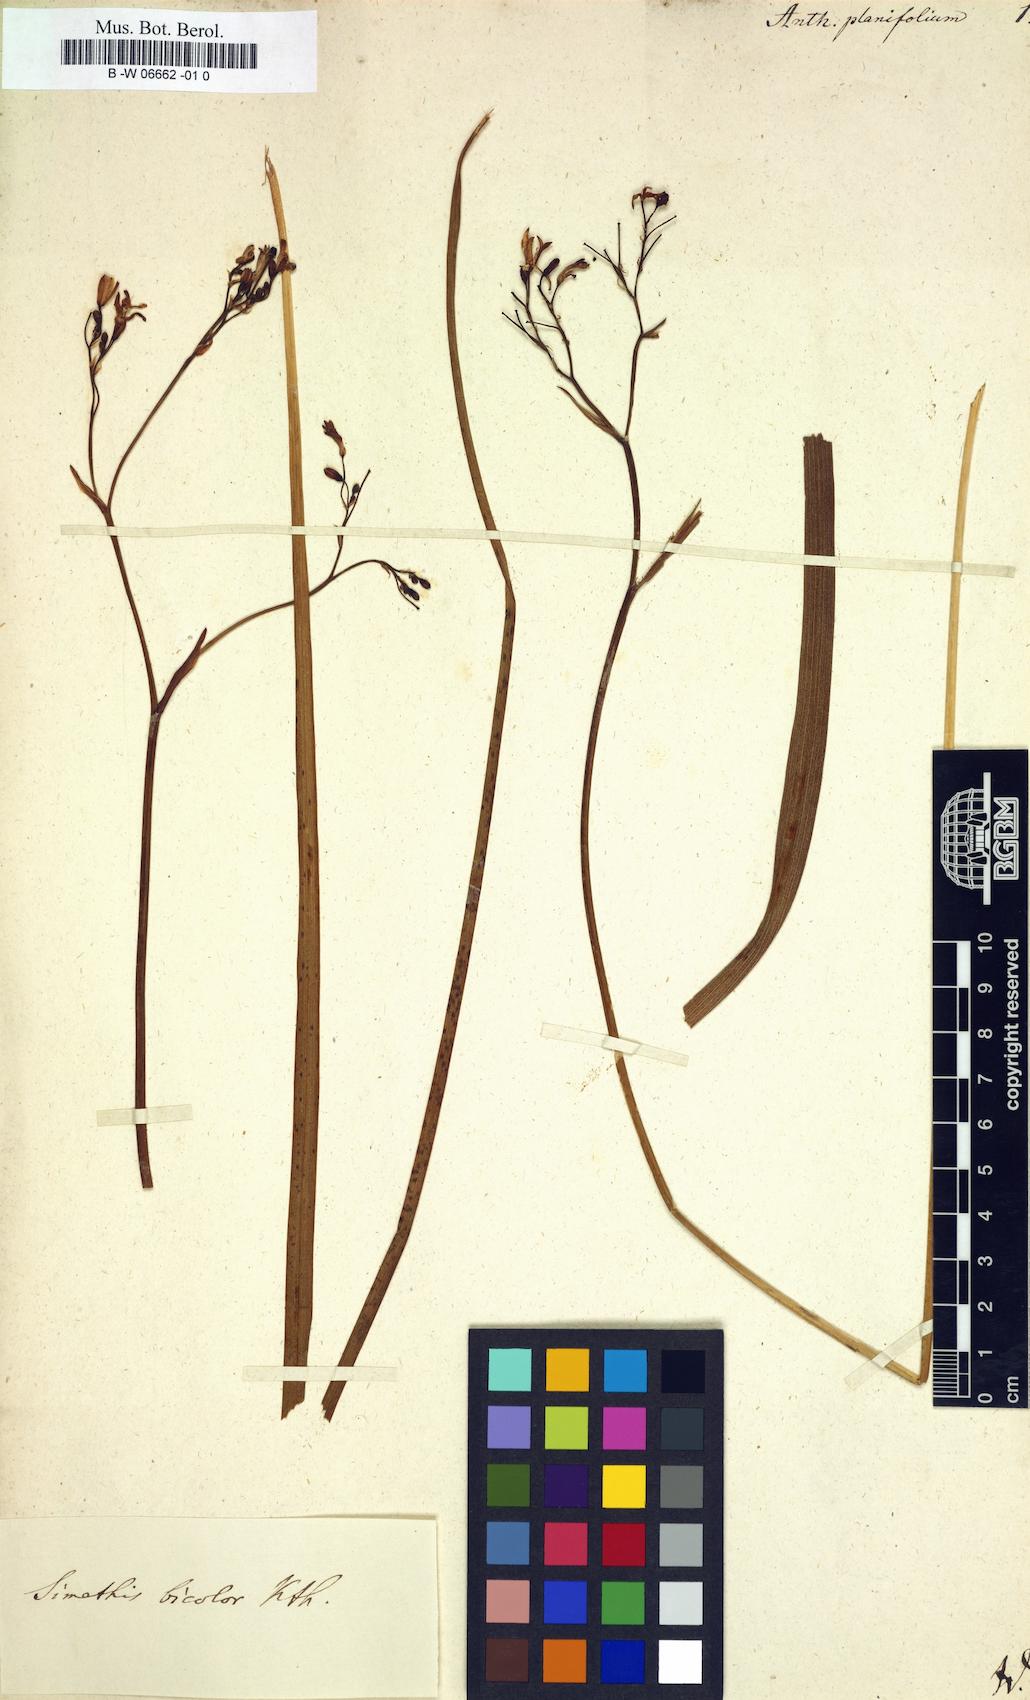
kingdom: Plantae
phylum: Tracheophyta
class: Liliopsida
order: Asparagales
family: Asphodelaceae
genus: Simethis
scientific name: Simethis mattiazzii
